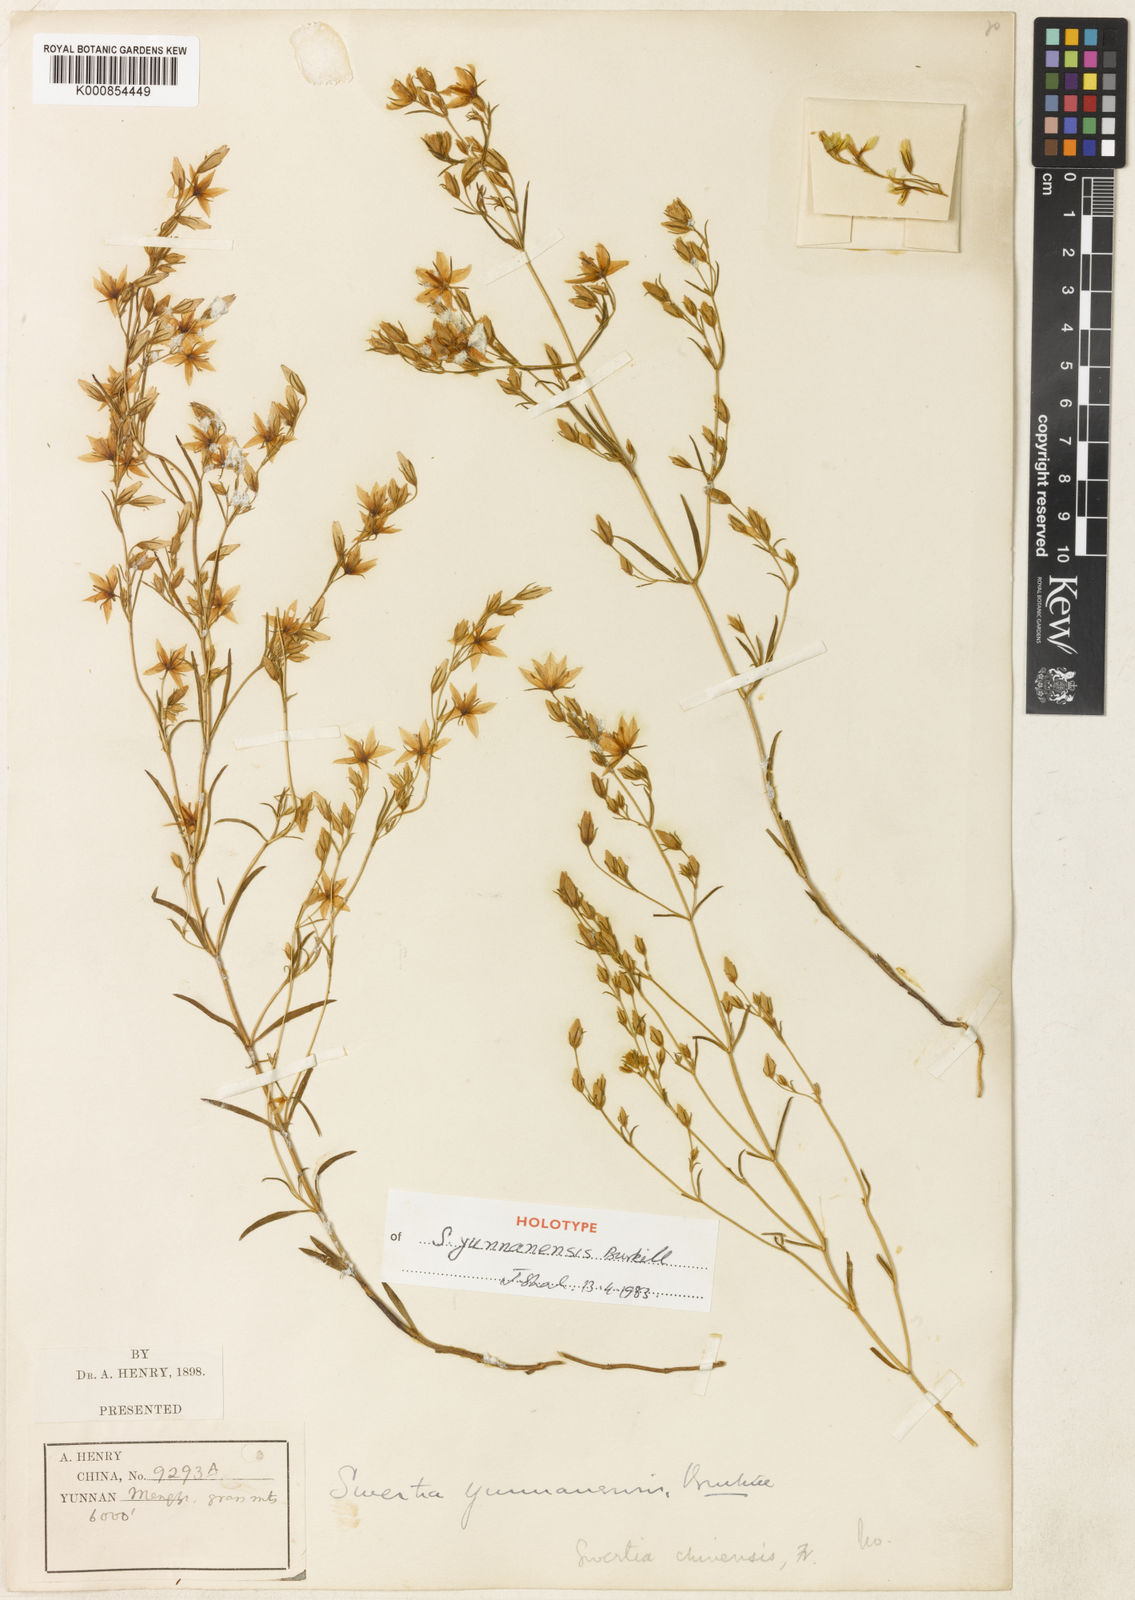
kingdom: Plantae
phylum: Tracheophyta
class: Magnoliopsida
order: Gentianales
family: Gentianaceae
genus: Swertia
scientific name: Swertia yunnanensis
